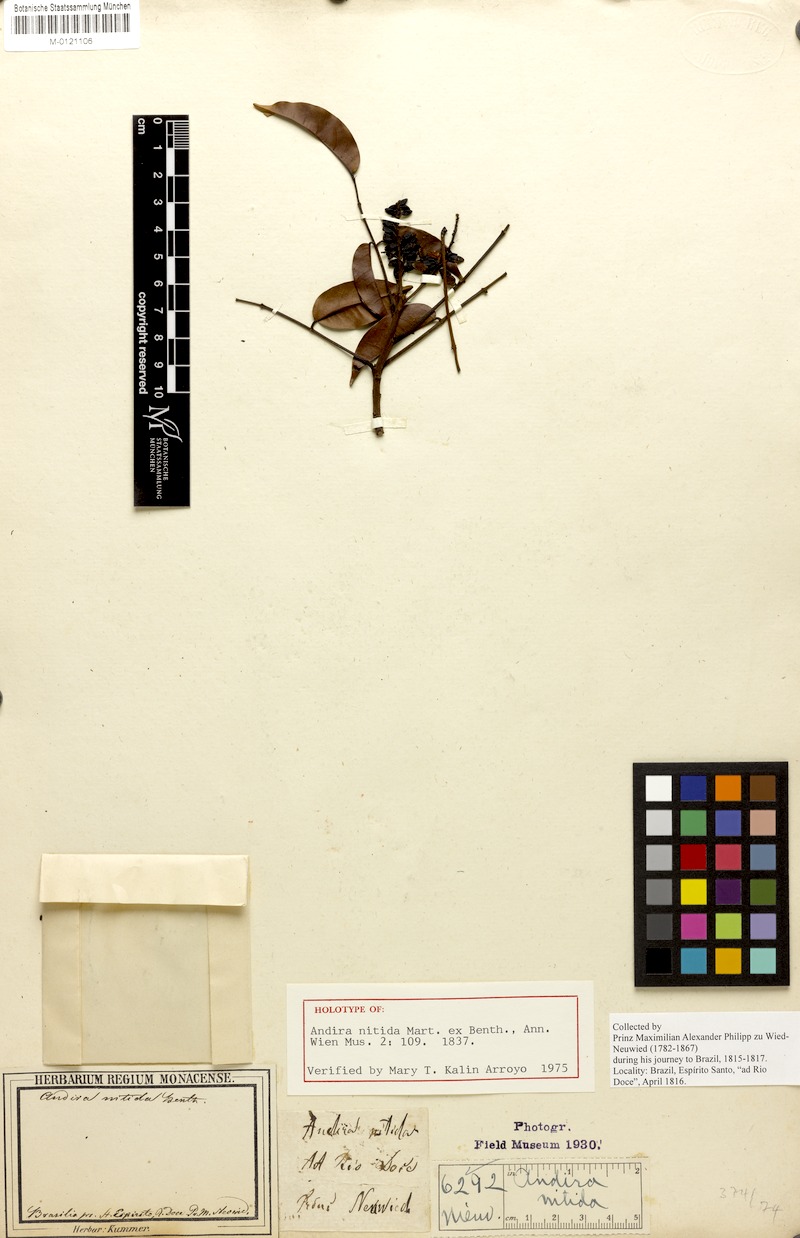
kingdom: Plantae
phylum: Tracheophyta
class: Magnoliopsida
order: Fabales
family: Fabaceae
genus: Andira
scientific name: Andira nitida
